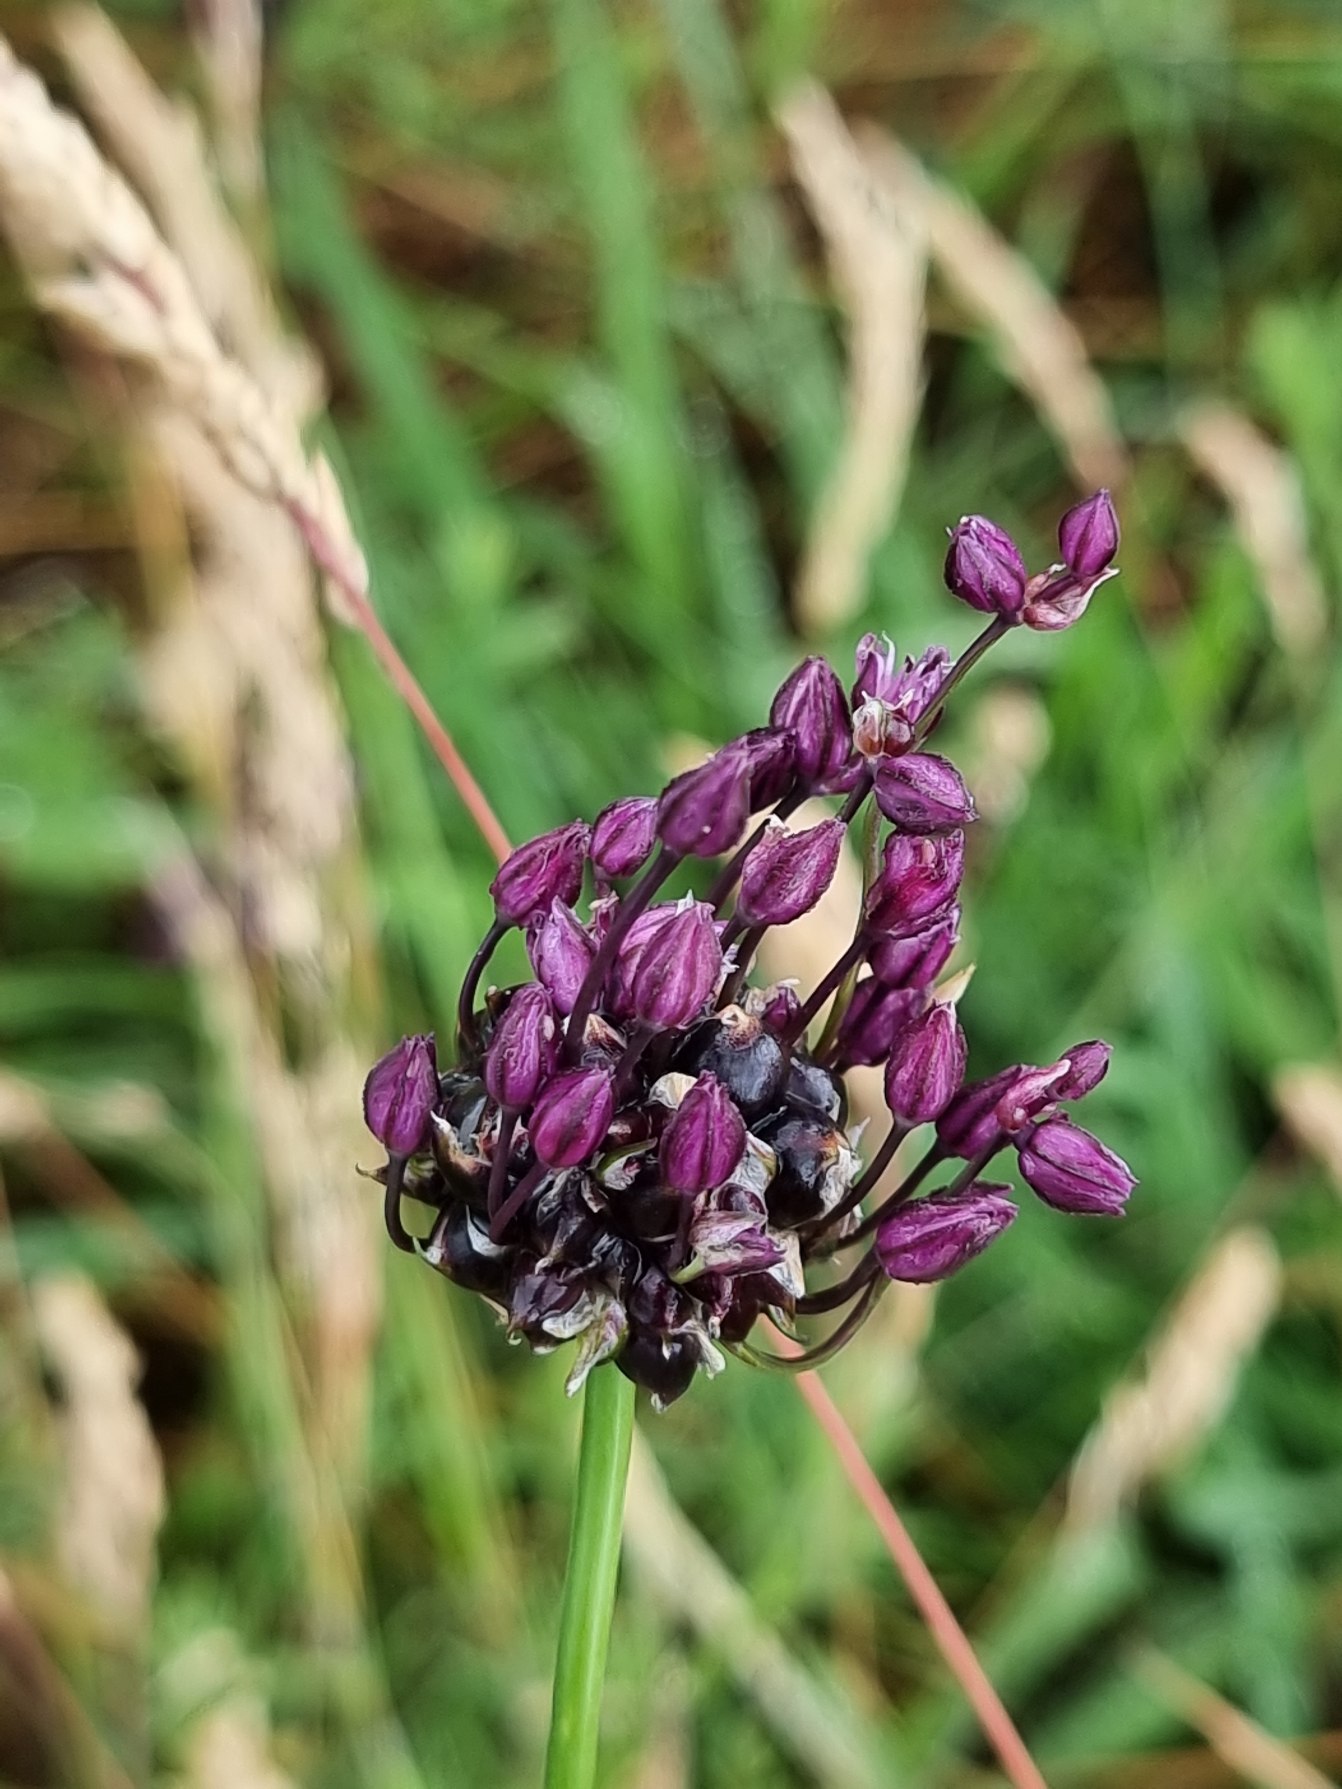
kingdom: Plantae
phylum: Tracheophyta
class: Liliopsida
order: Asparagales
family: Amaryllidaceae
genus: Allium
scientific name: Allium scorodoprasum
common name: Skov-løg
